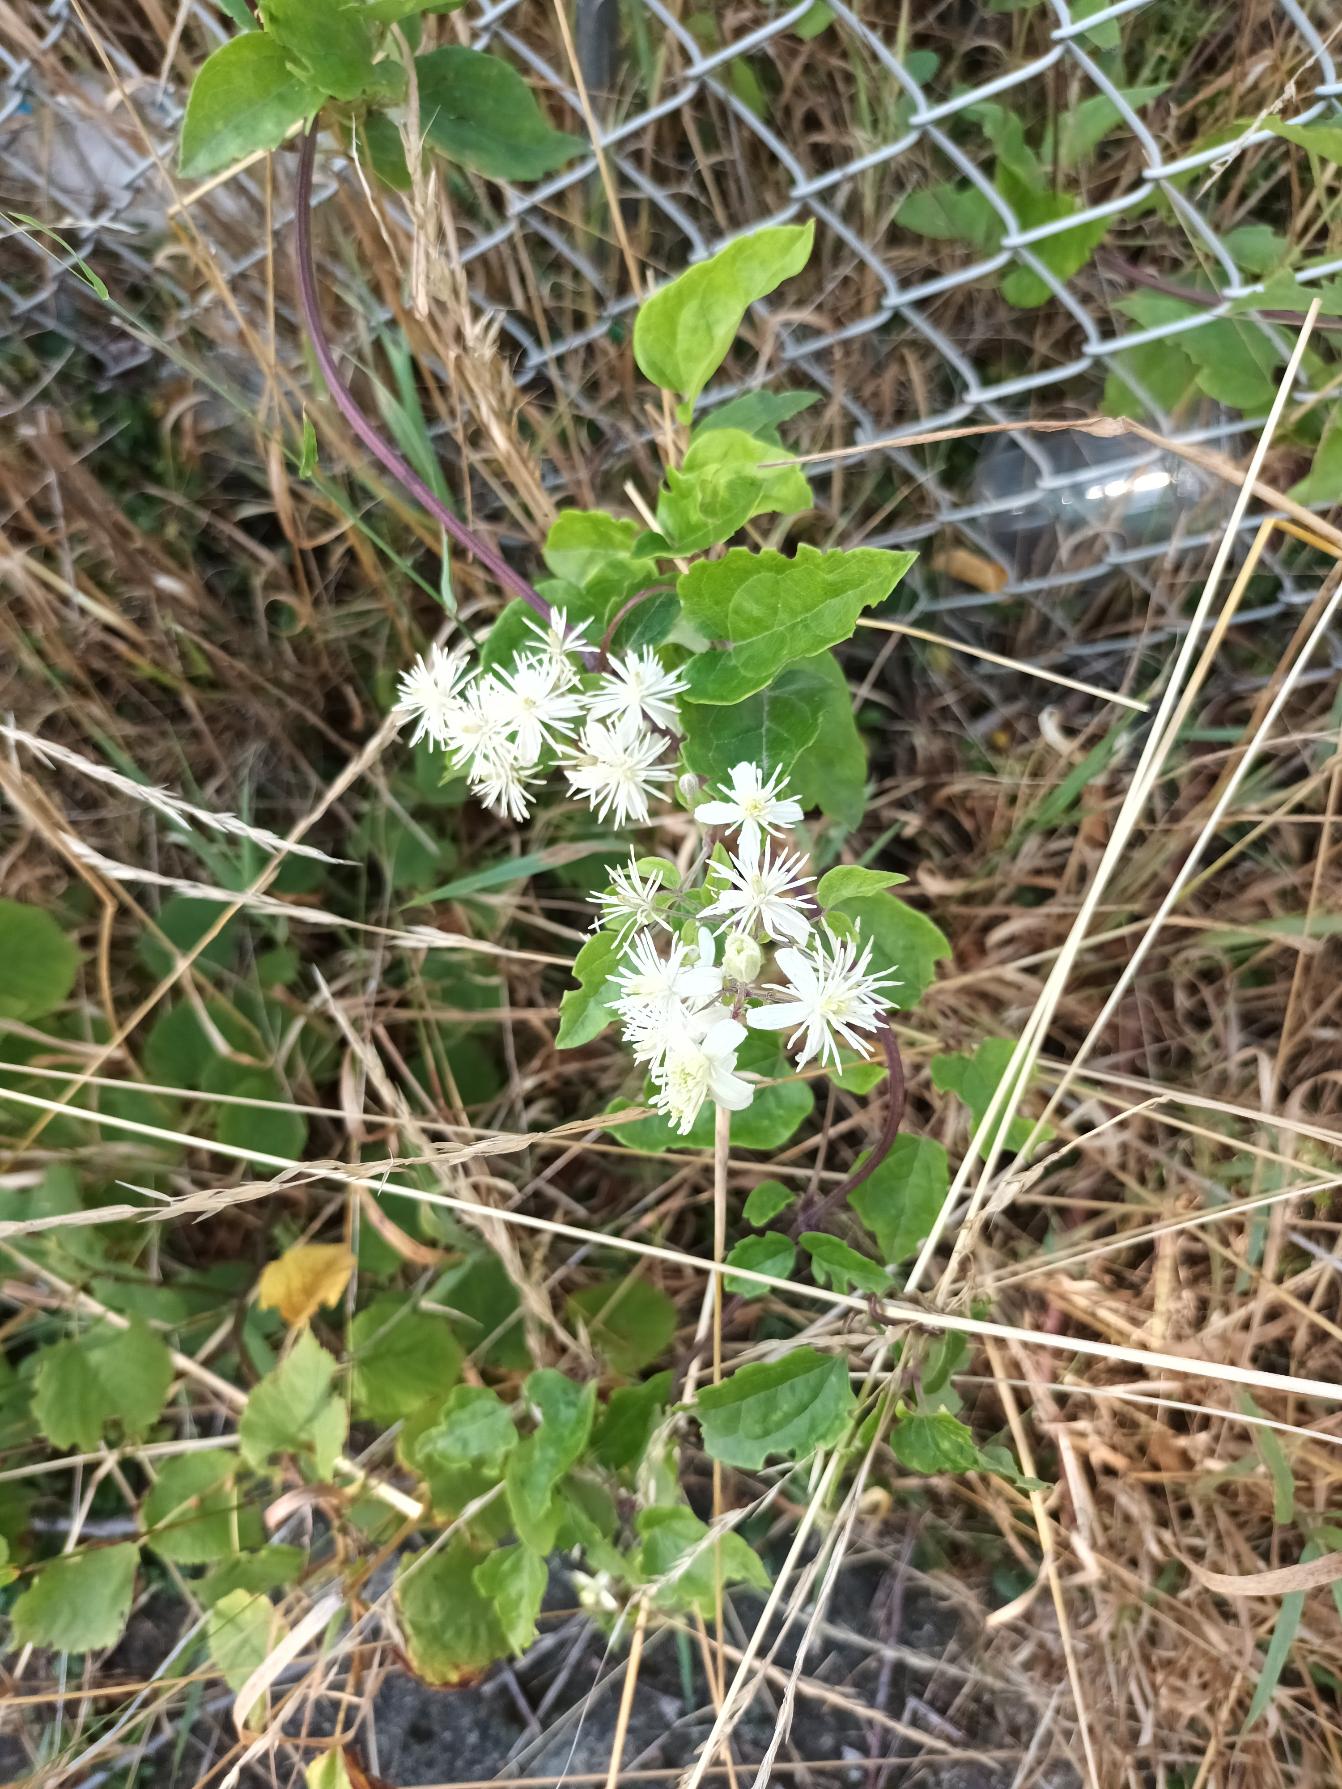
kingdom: Plantae
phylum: Tracheophyta
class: Magnoliopsida
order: Ranunculales
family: Ranunculaceae
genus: Clematis
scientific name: Clematis vitalba
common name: Skovranke
